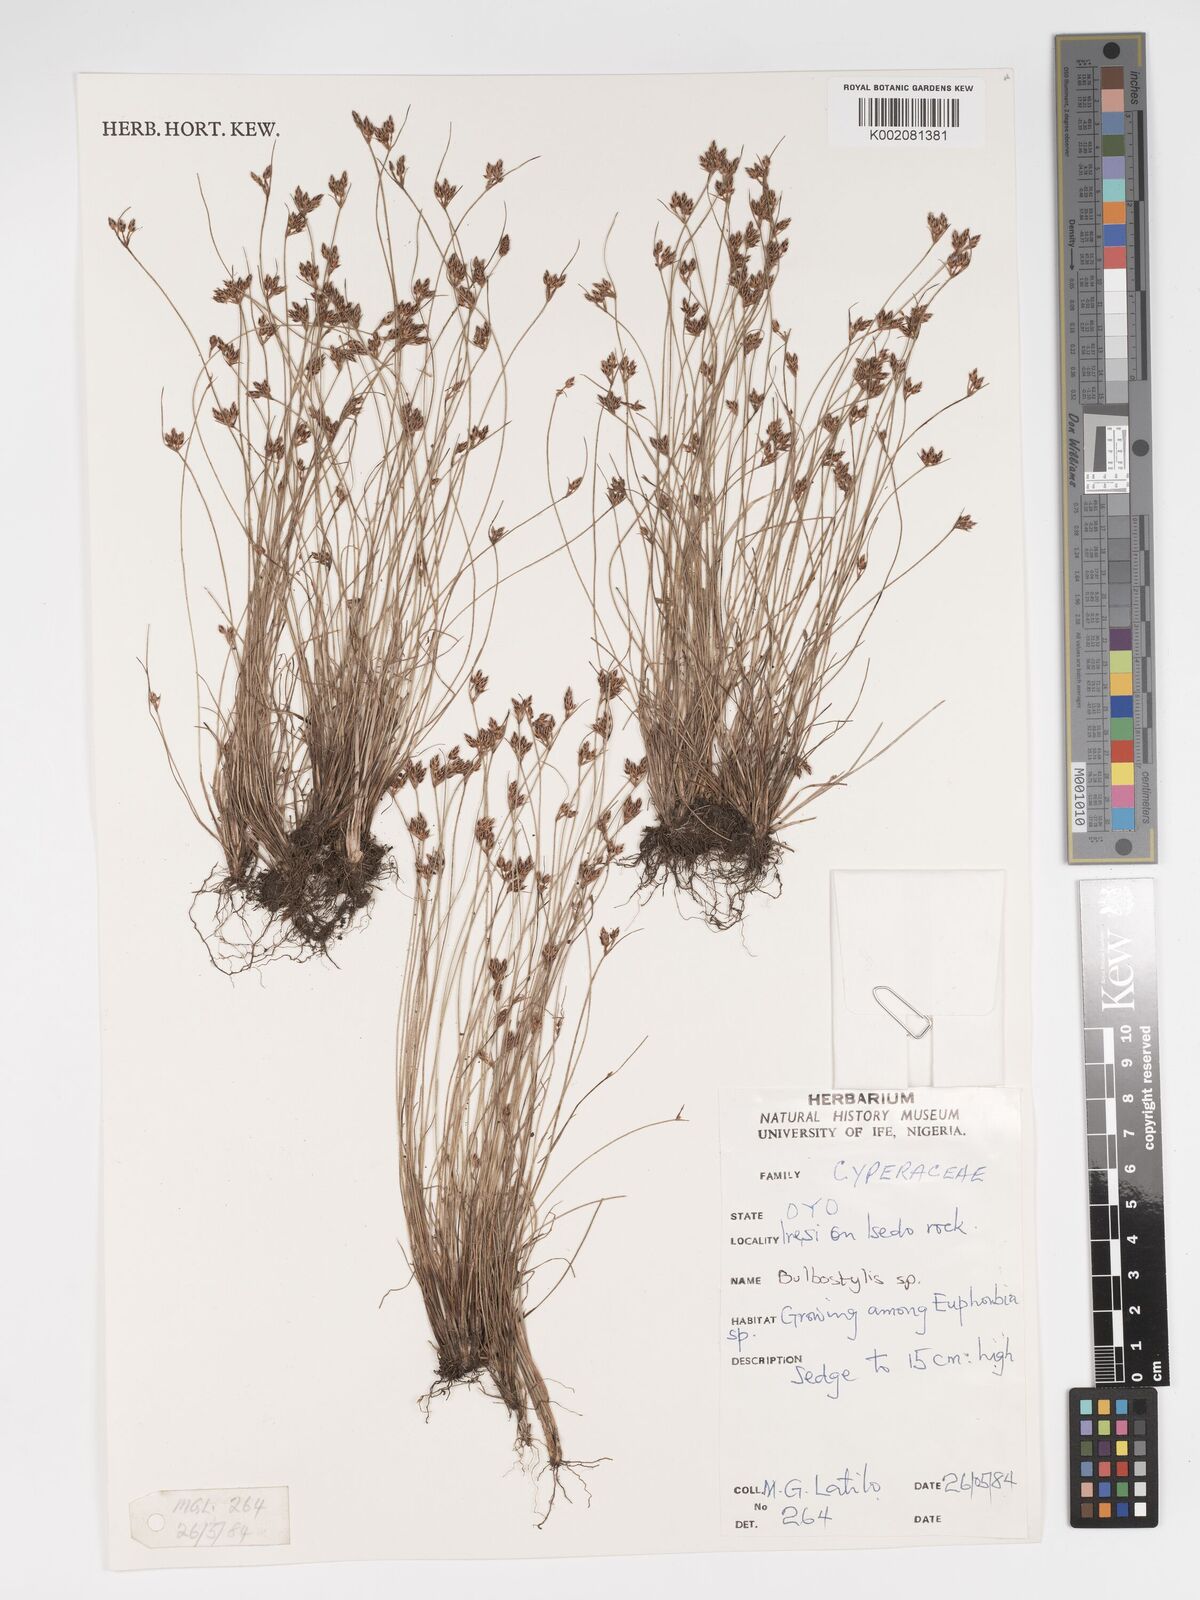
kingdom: Plantae
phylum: Tracheophyta
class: Liliopsida
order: Poales
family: Cyperaceae
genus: Bulbostylis
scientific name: Bulbostylis
